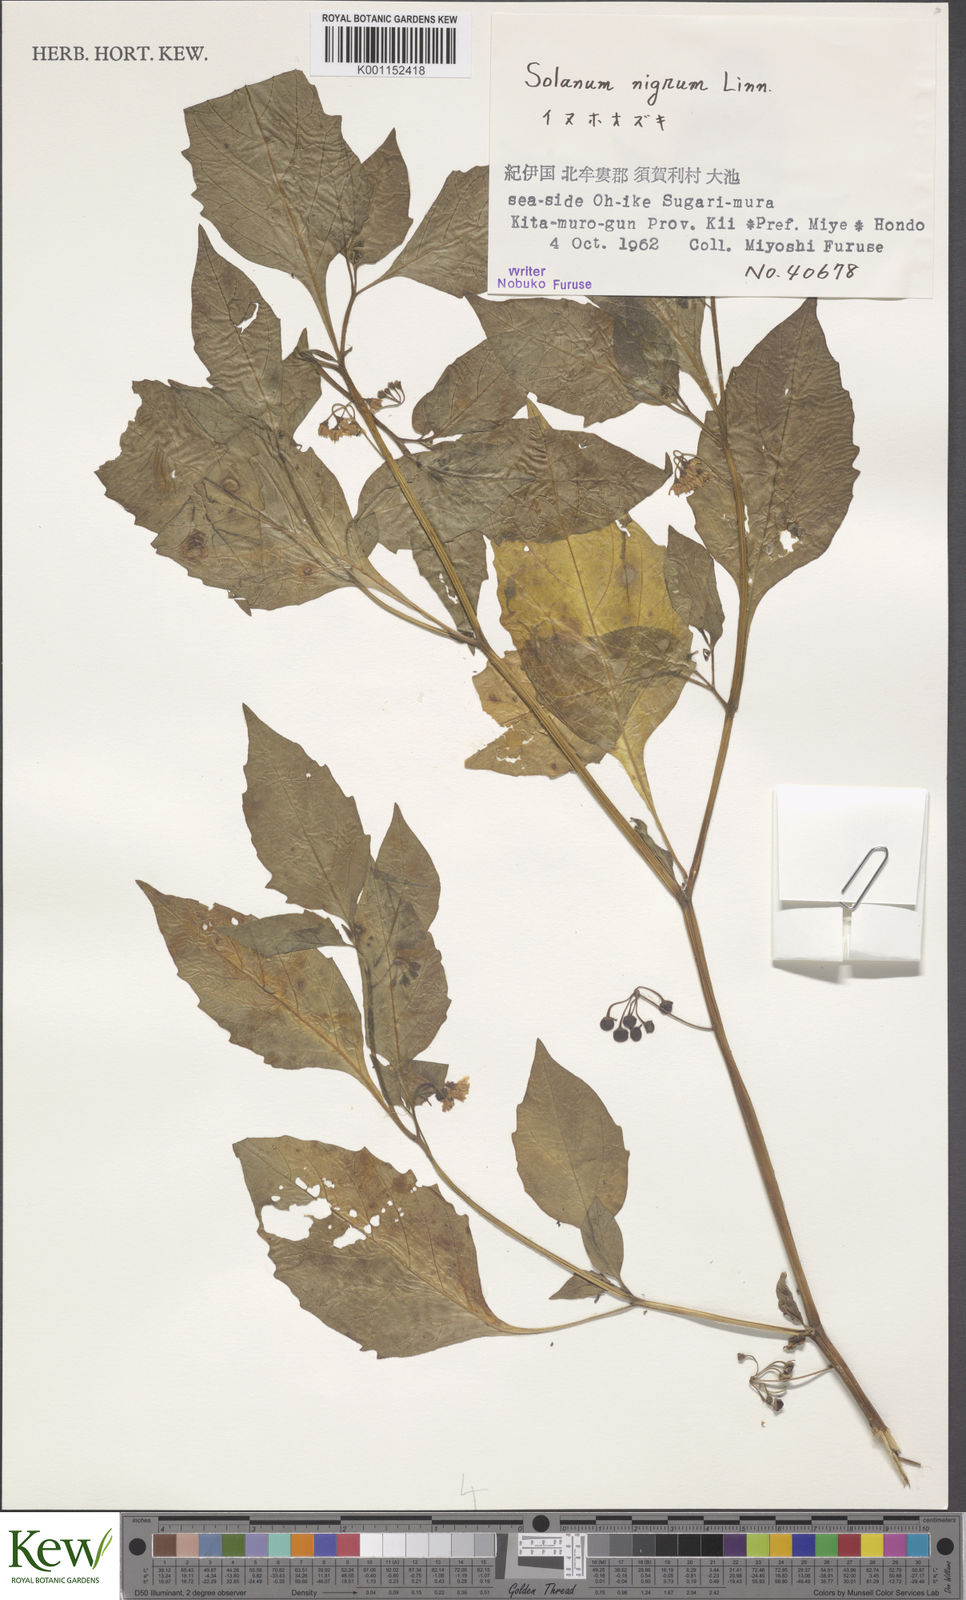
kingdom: Plantae
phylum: Tracheophyta
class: Magnoliopsida
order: Solanales
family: Solanaceae
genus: Solanum
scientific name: Solanum nigrum
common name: Black nightshade
